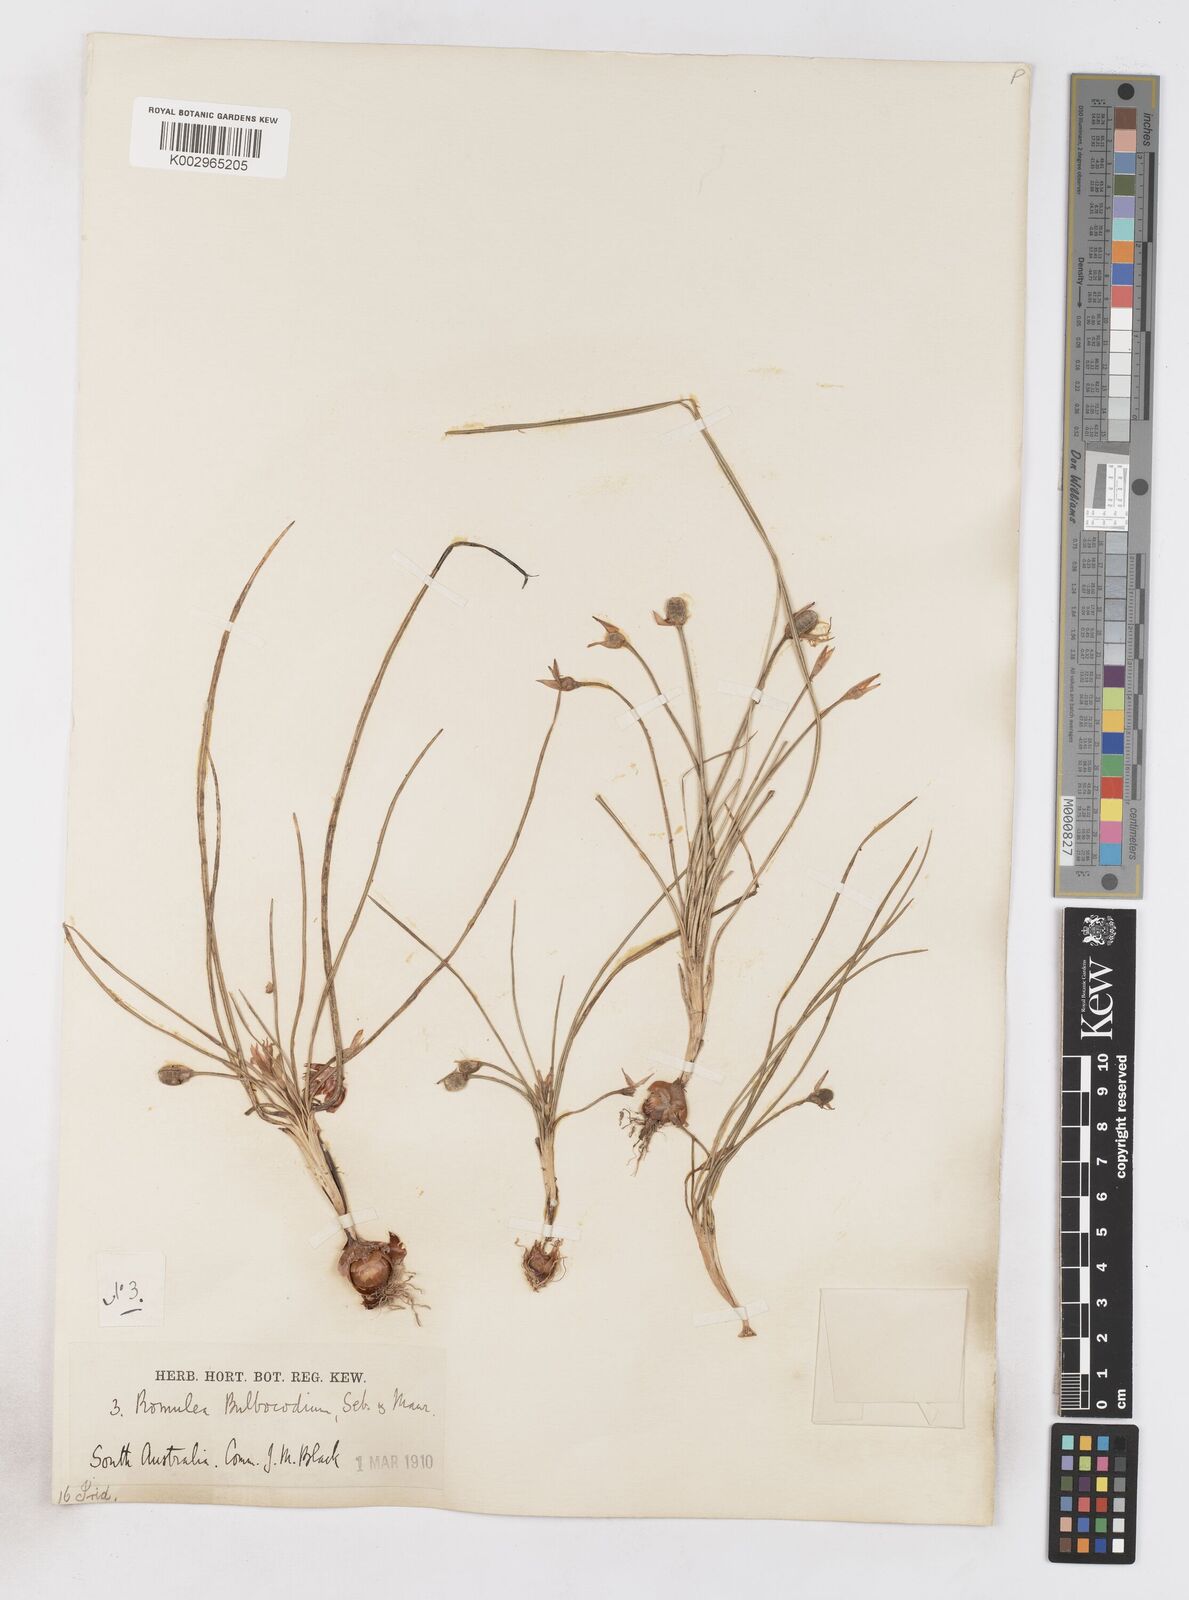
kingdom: Plantae
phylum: Tracheophyta
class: Liliopsida
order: Asparagales
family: Iridaceae
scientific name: Iridaceae
